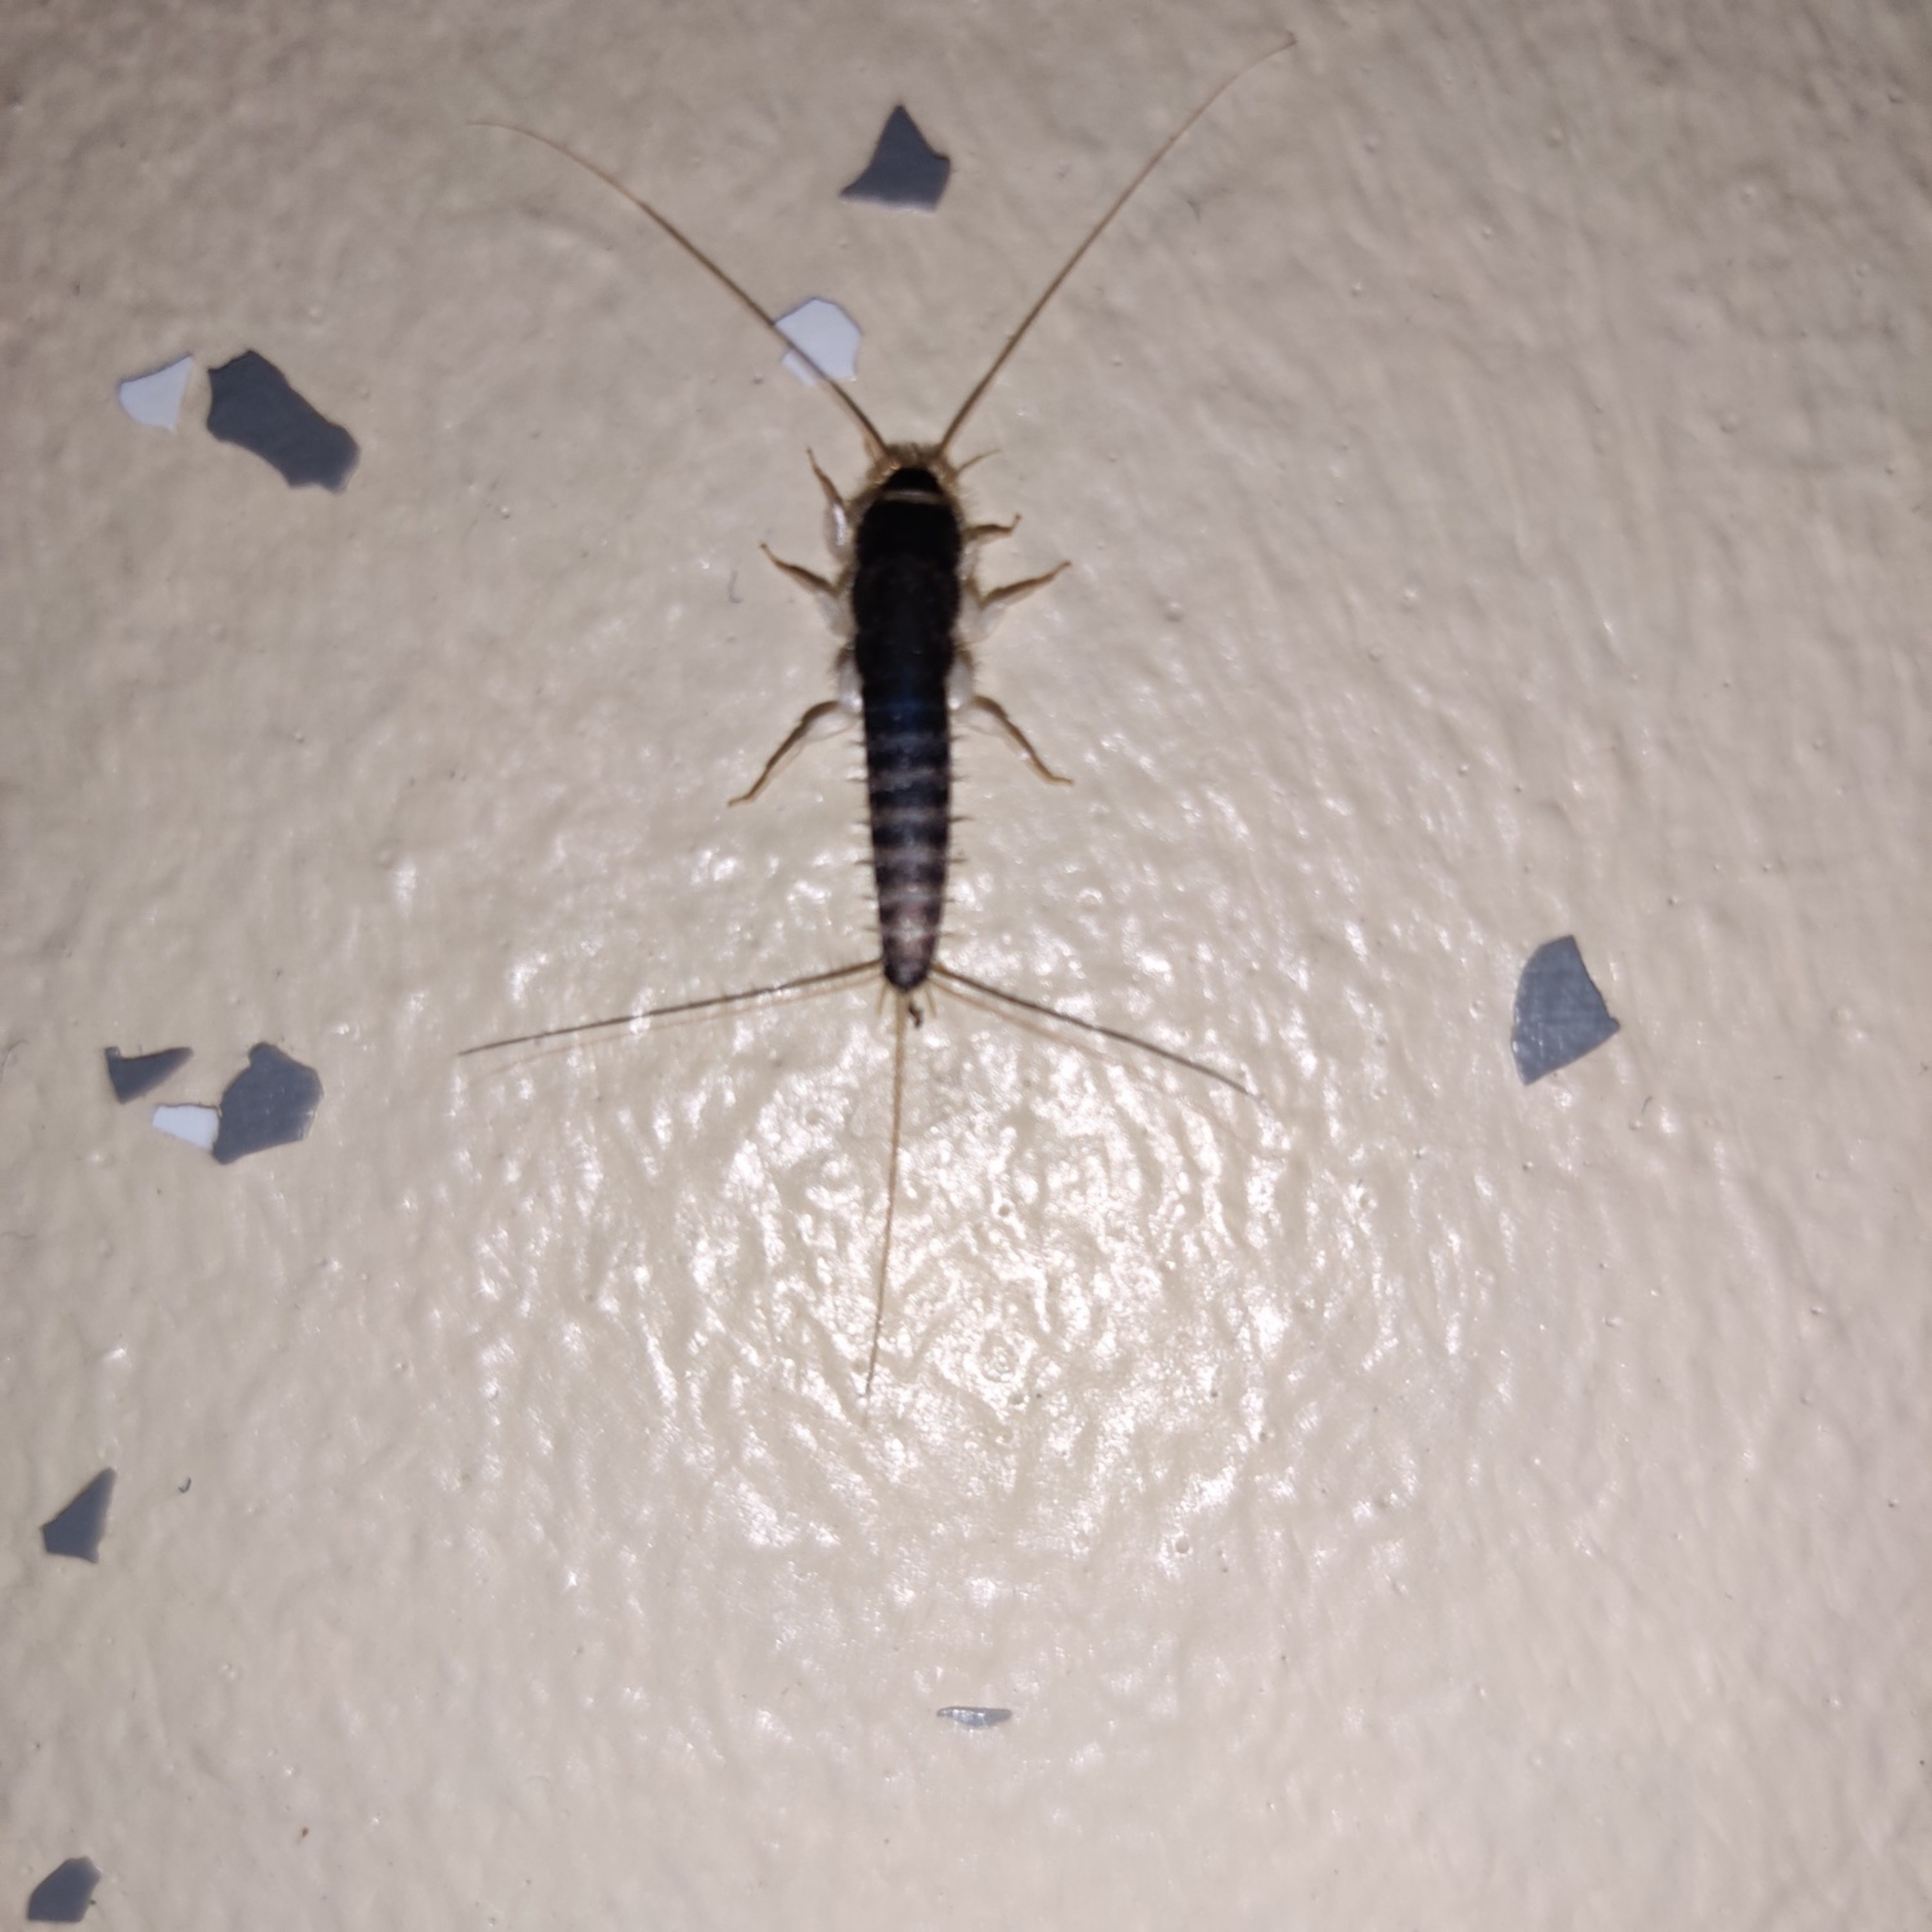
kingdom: Animalia
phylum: Arthropoda
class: Insecta
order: Zygentoma
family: Lepismatidae
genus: Ctenolepisma
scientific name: Ctenolepisma longicaudatum
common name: Skægget sølvkræ
